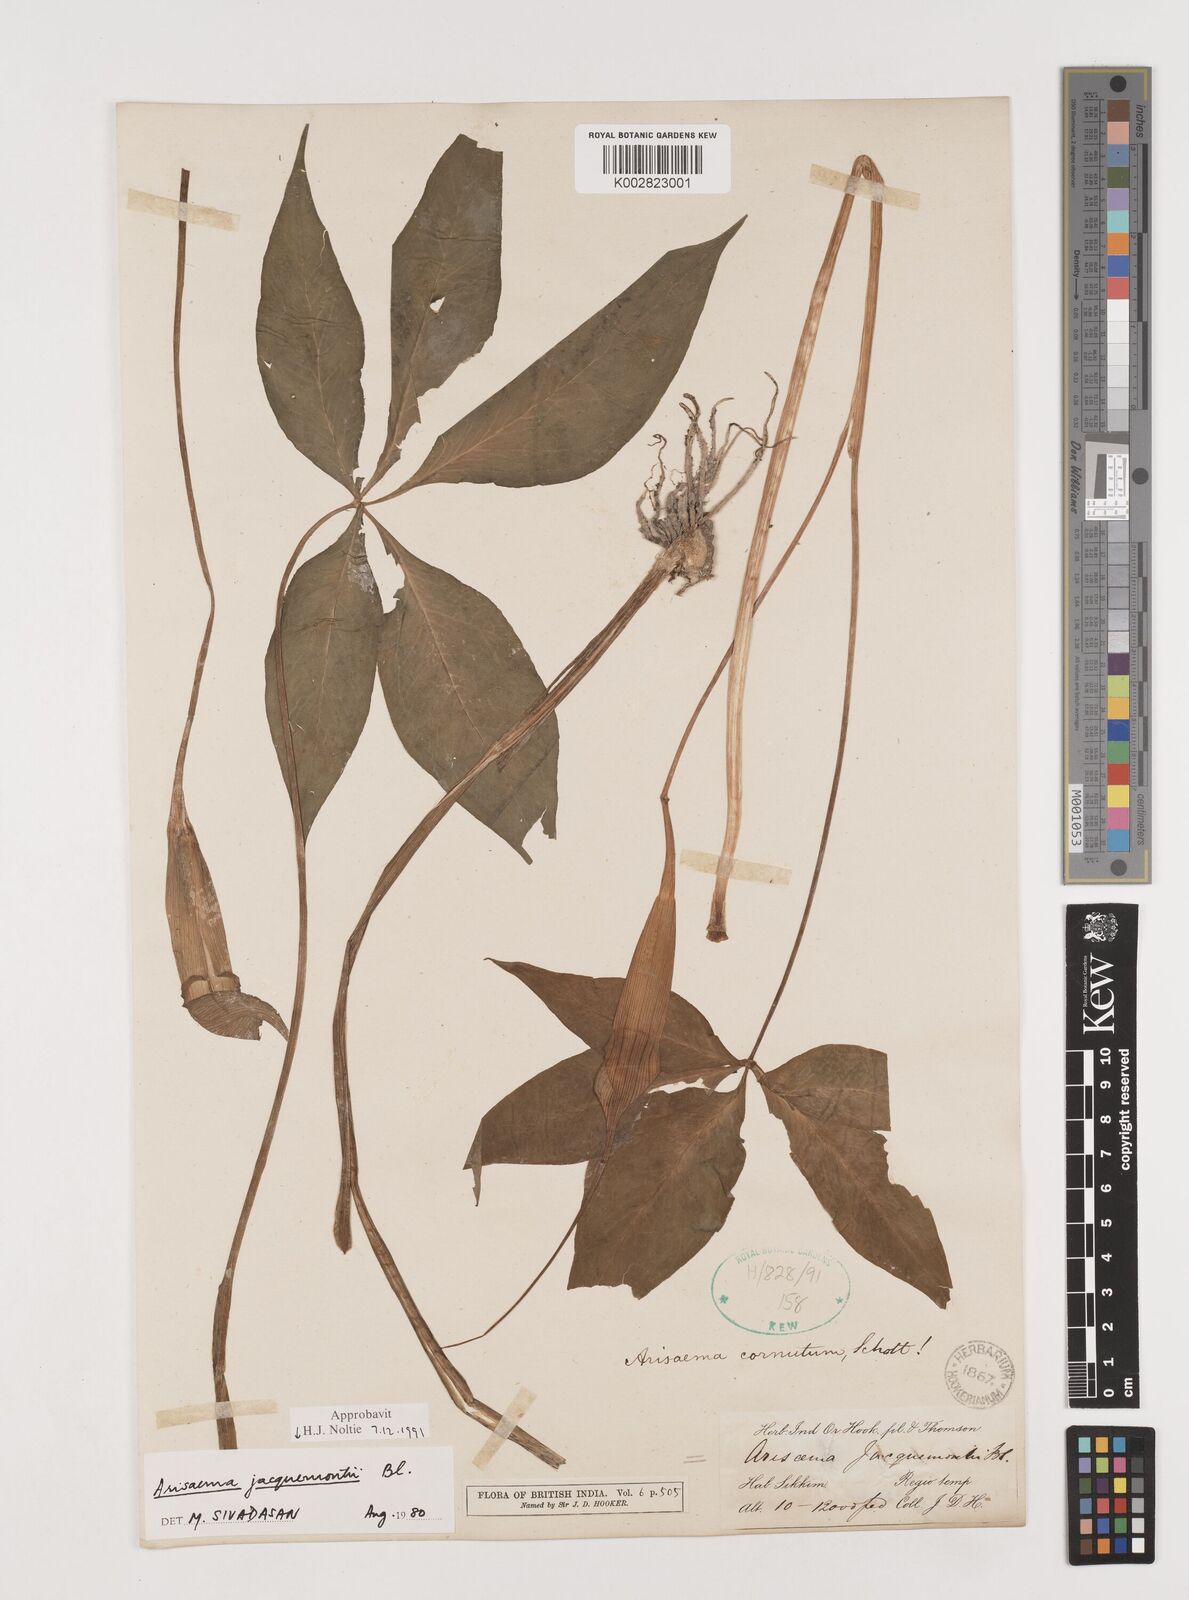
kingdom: Plantae
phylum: Tracheophyta
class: Liliopsida
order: Alismatales
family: Araceae
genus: Arisaema
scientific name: Arisaema jacquemontii
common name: Jacquemont's cobra-lily
